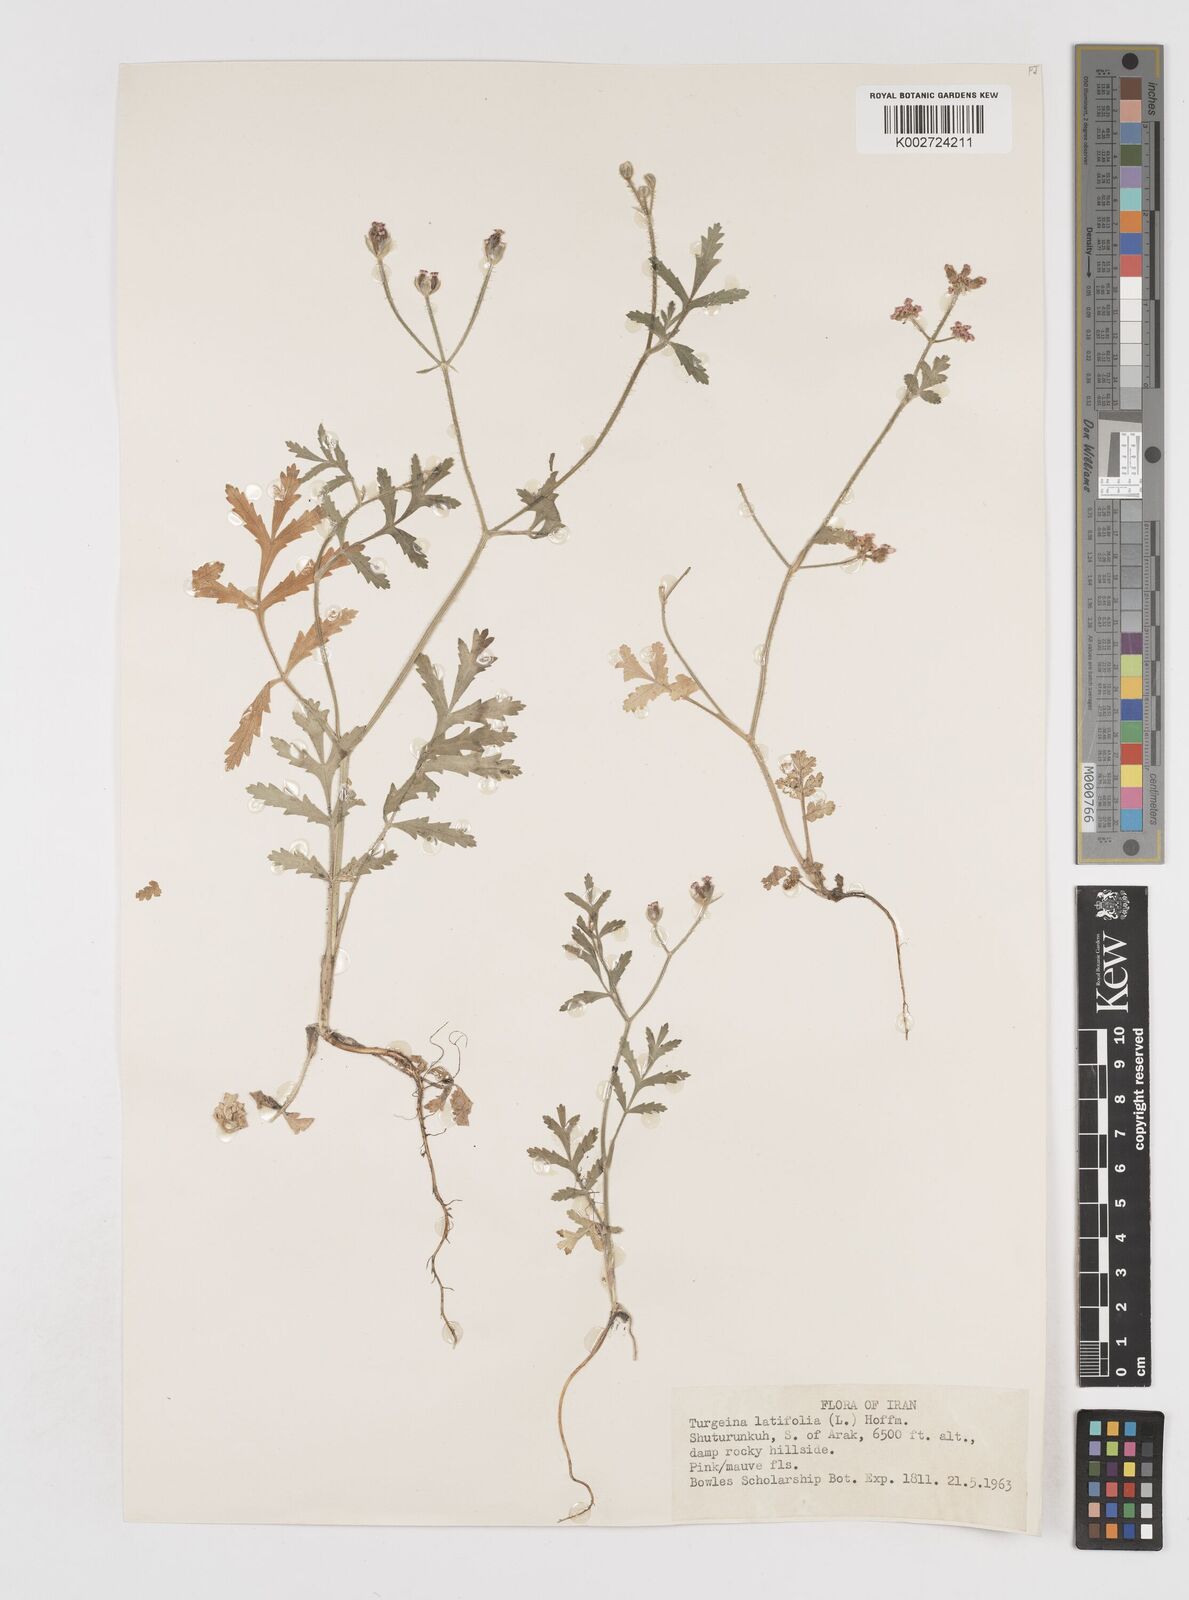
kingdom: Plantae
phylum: Tracheophyta
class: Magnoliopsida
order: Apiales
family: Apiaceae
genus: Turgenia
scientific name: Turgenia latifolia
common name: Greater bur-parsley
